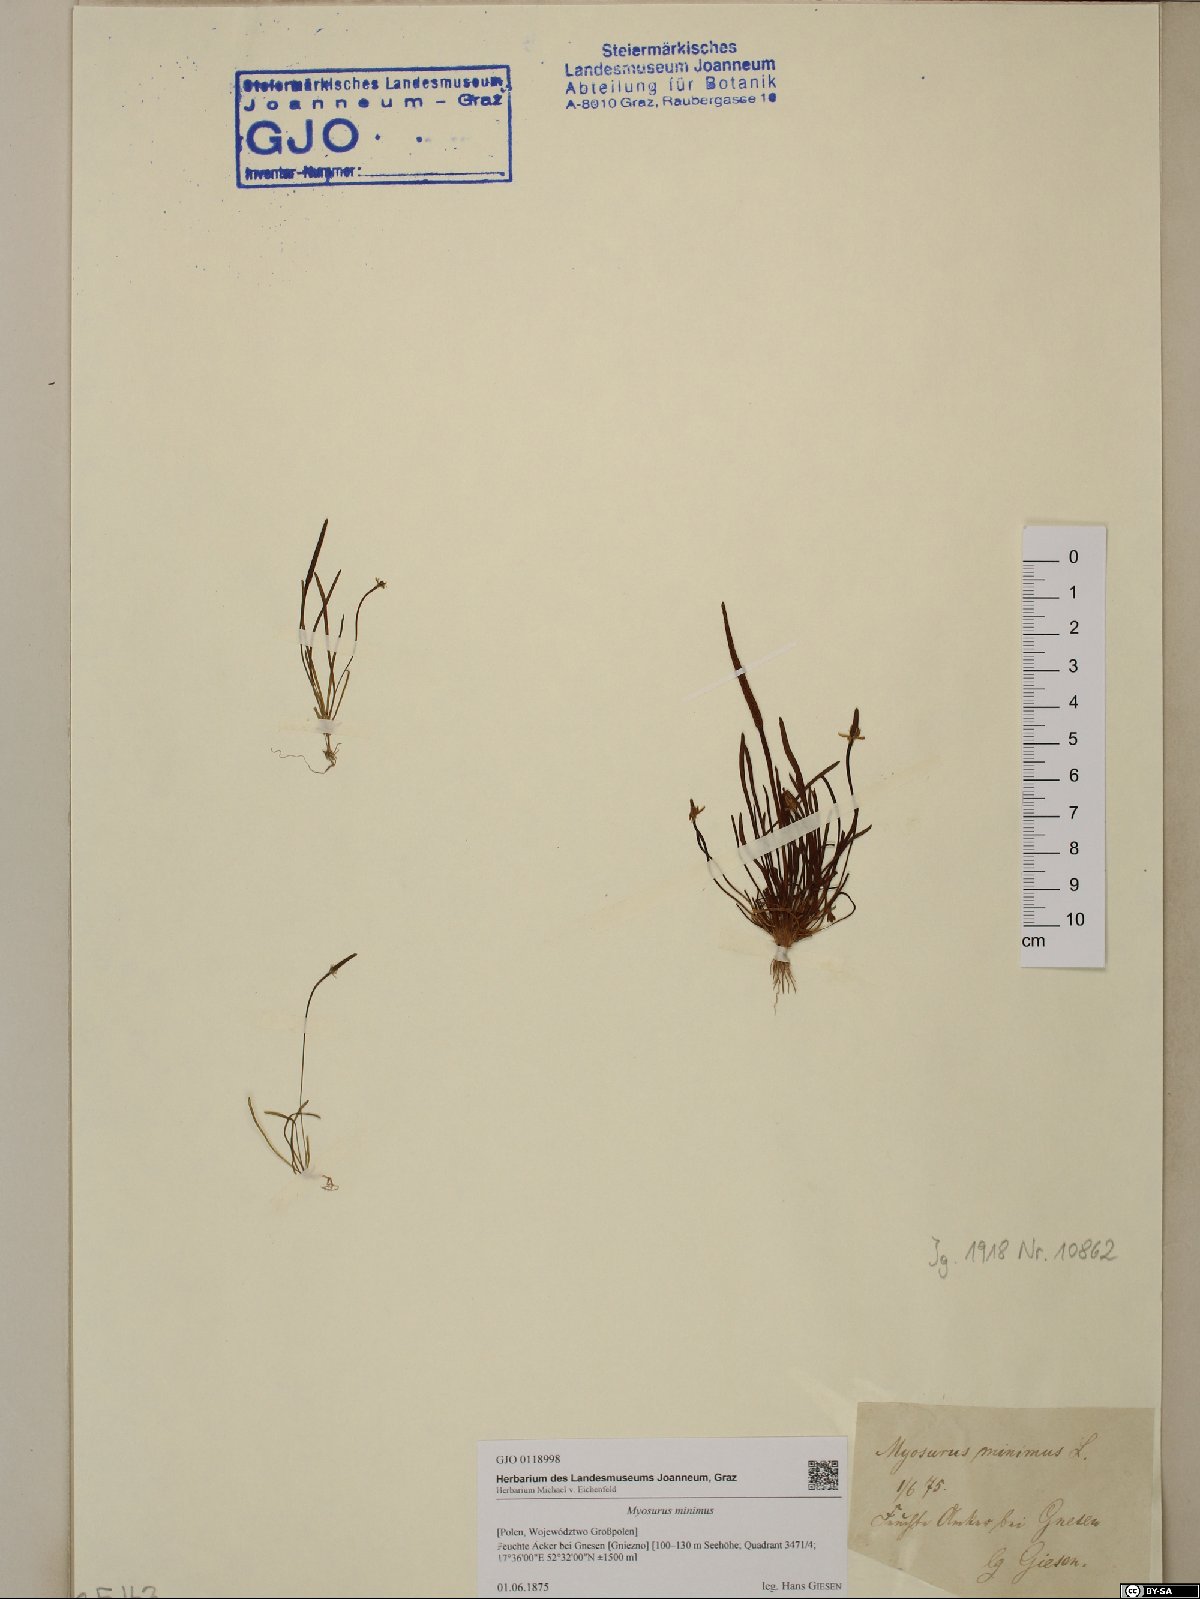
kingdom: Plantae
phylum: Tracheophyta
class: Magnoliopsida
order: Ranunculales
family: Ranunculaceae
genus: Myosurus
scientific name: Myosurus minimus
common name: Mousetail
